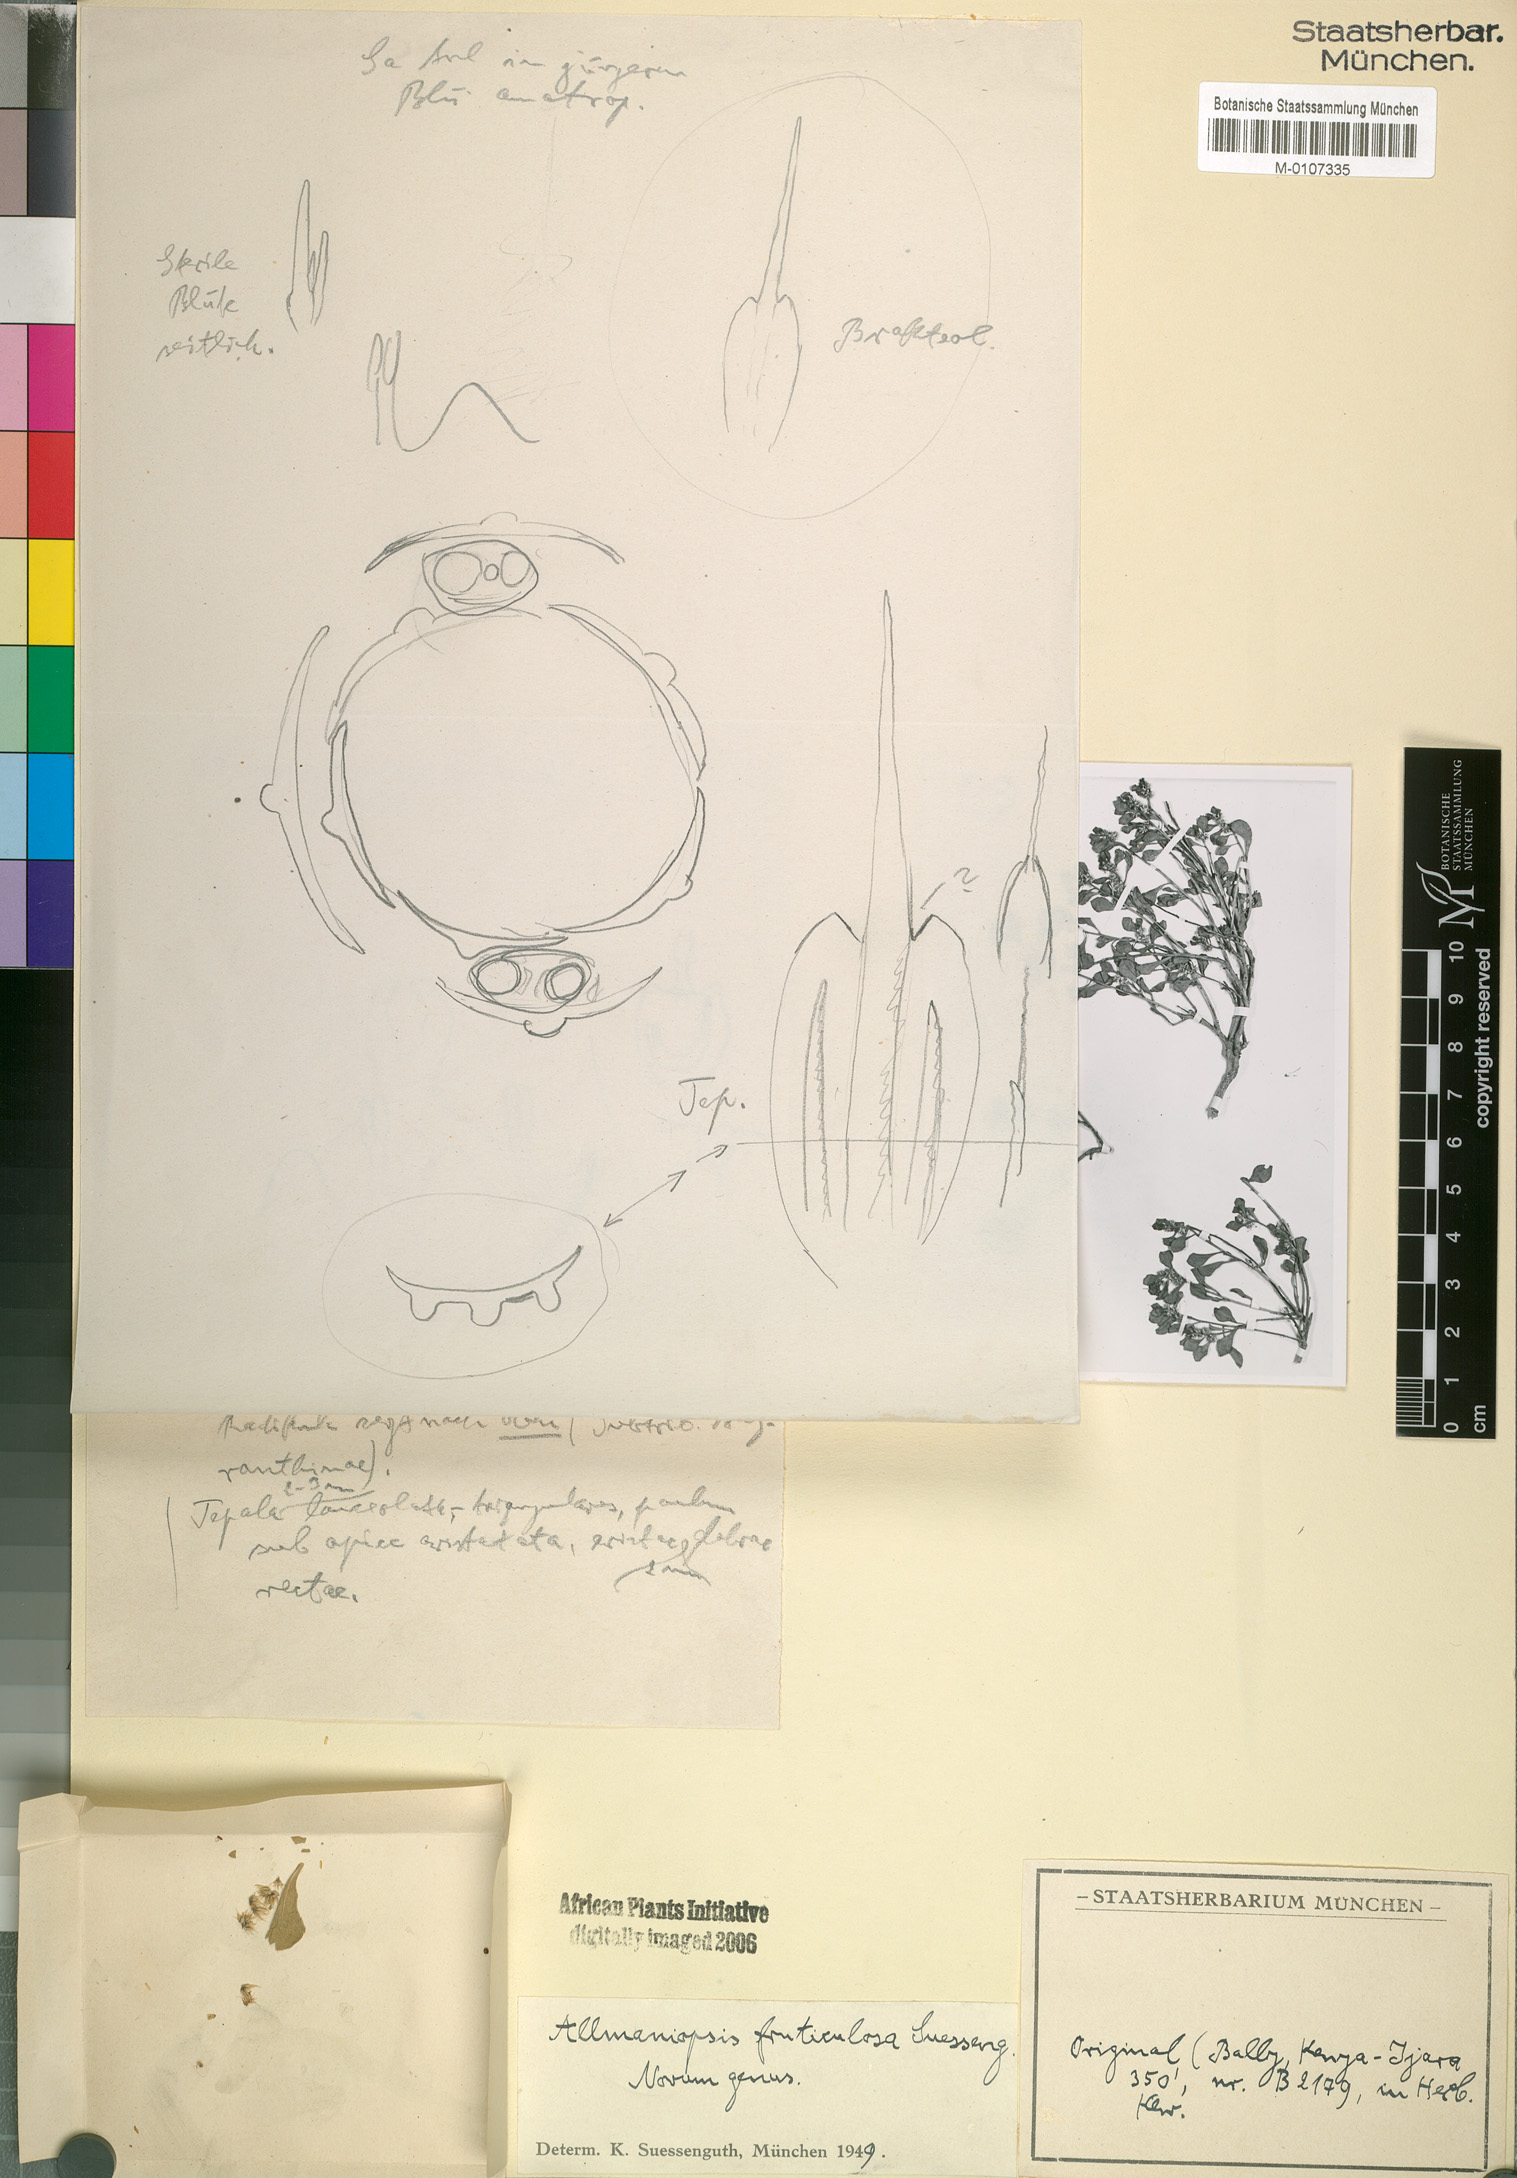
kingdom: Plantae
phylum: Tracheophyta
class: Magnoliopsida
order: Caryophyllales
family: Amaranthaceae
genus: Allmaniopsis
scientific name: Allmaniopsis fruticulosa
